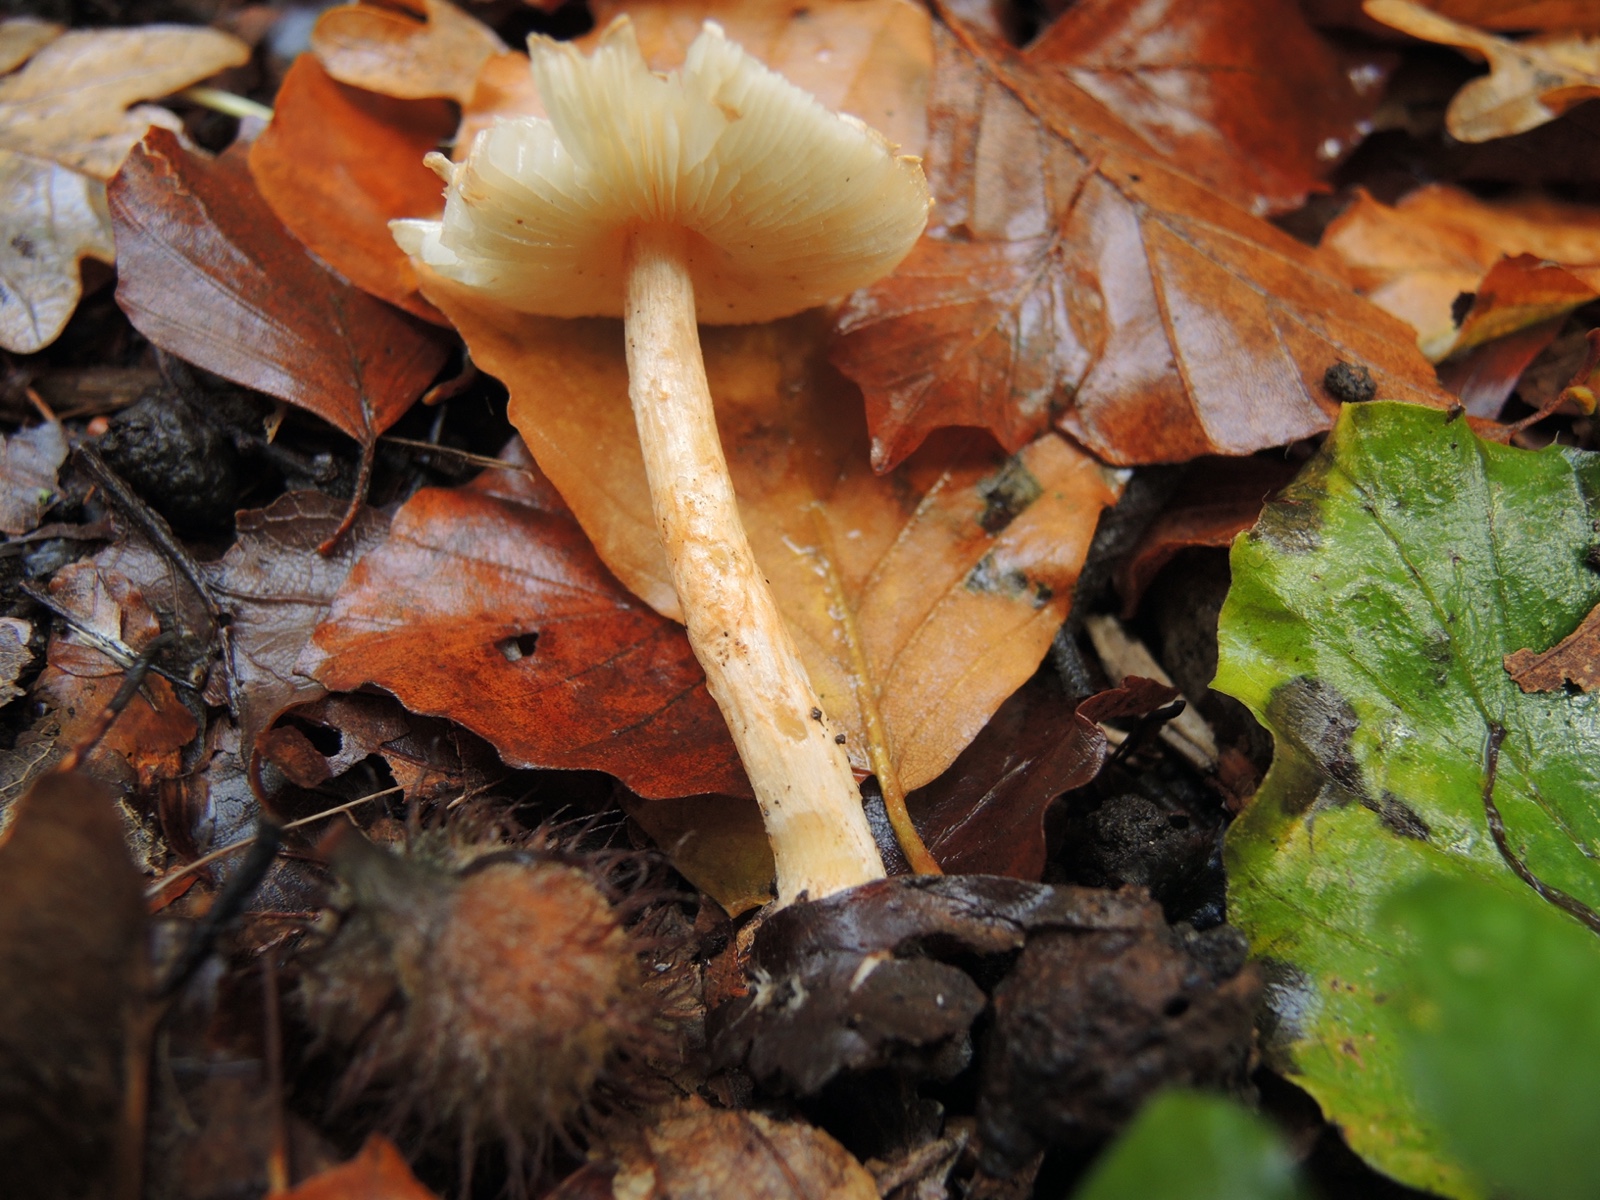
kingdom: Fungi
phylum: Basidiomycota
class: Agaricomycetes
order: Agaricales
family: Agaricaceae
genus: Leucocoprinus
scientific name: Leucocoprinus straminellus
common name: rustbrun parasolhat
